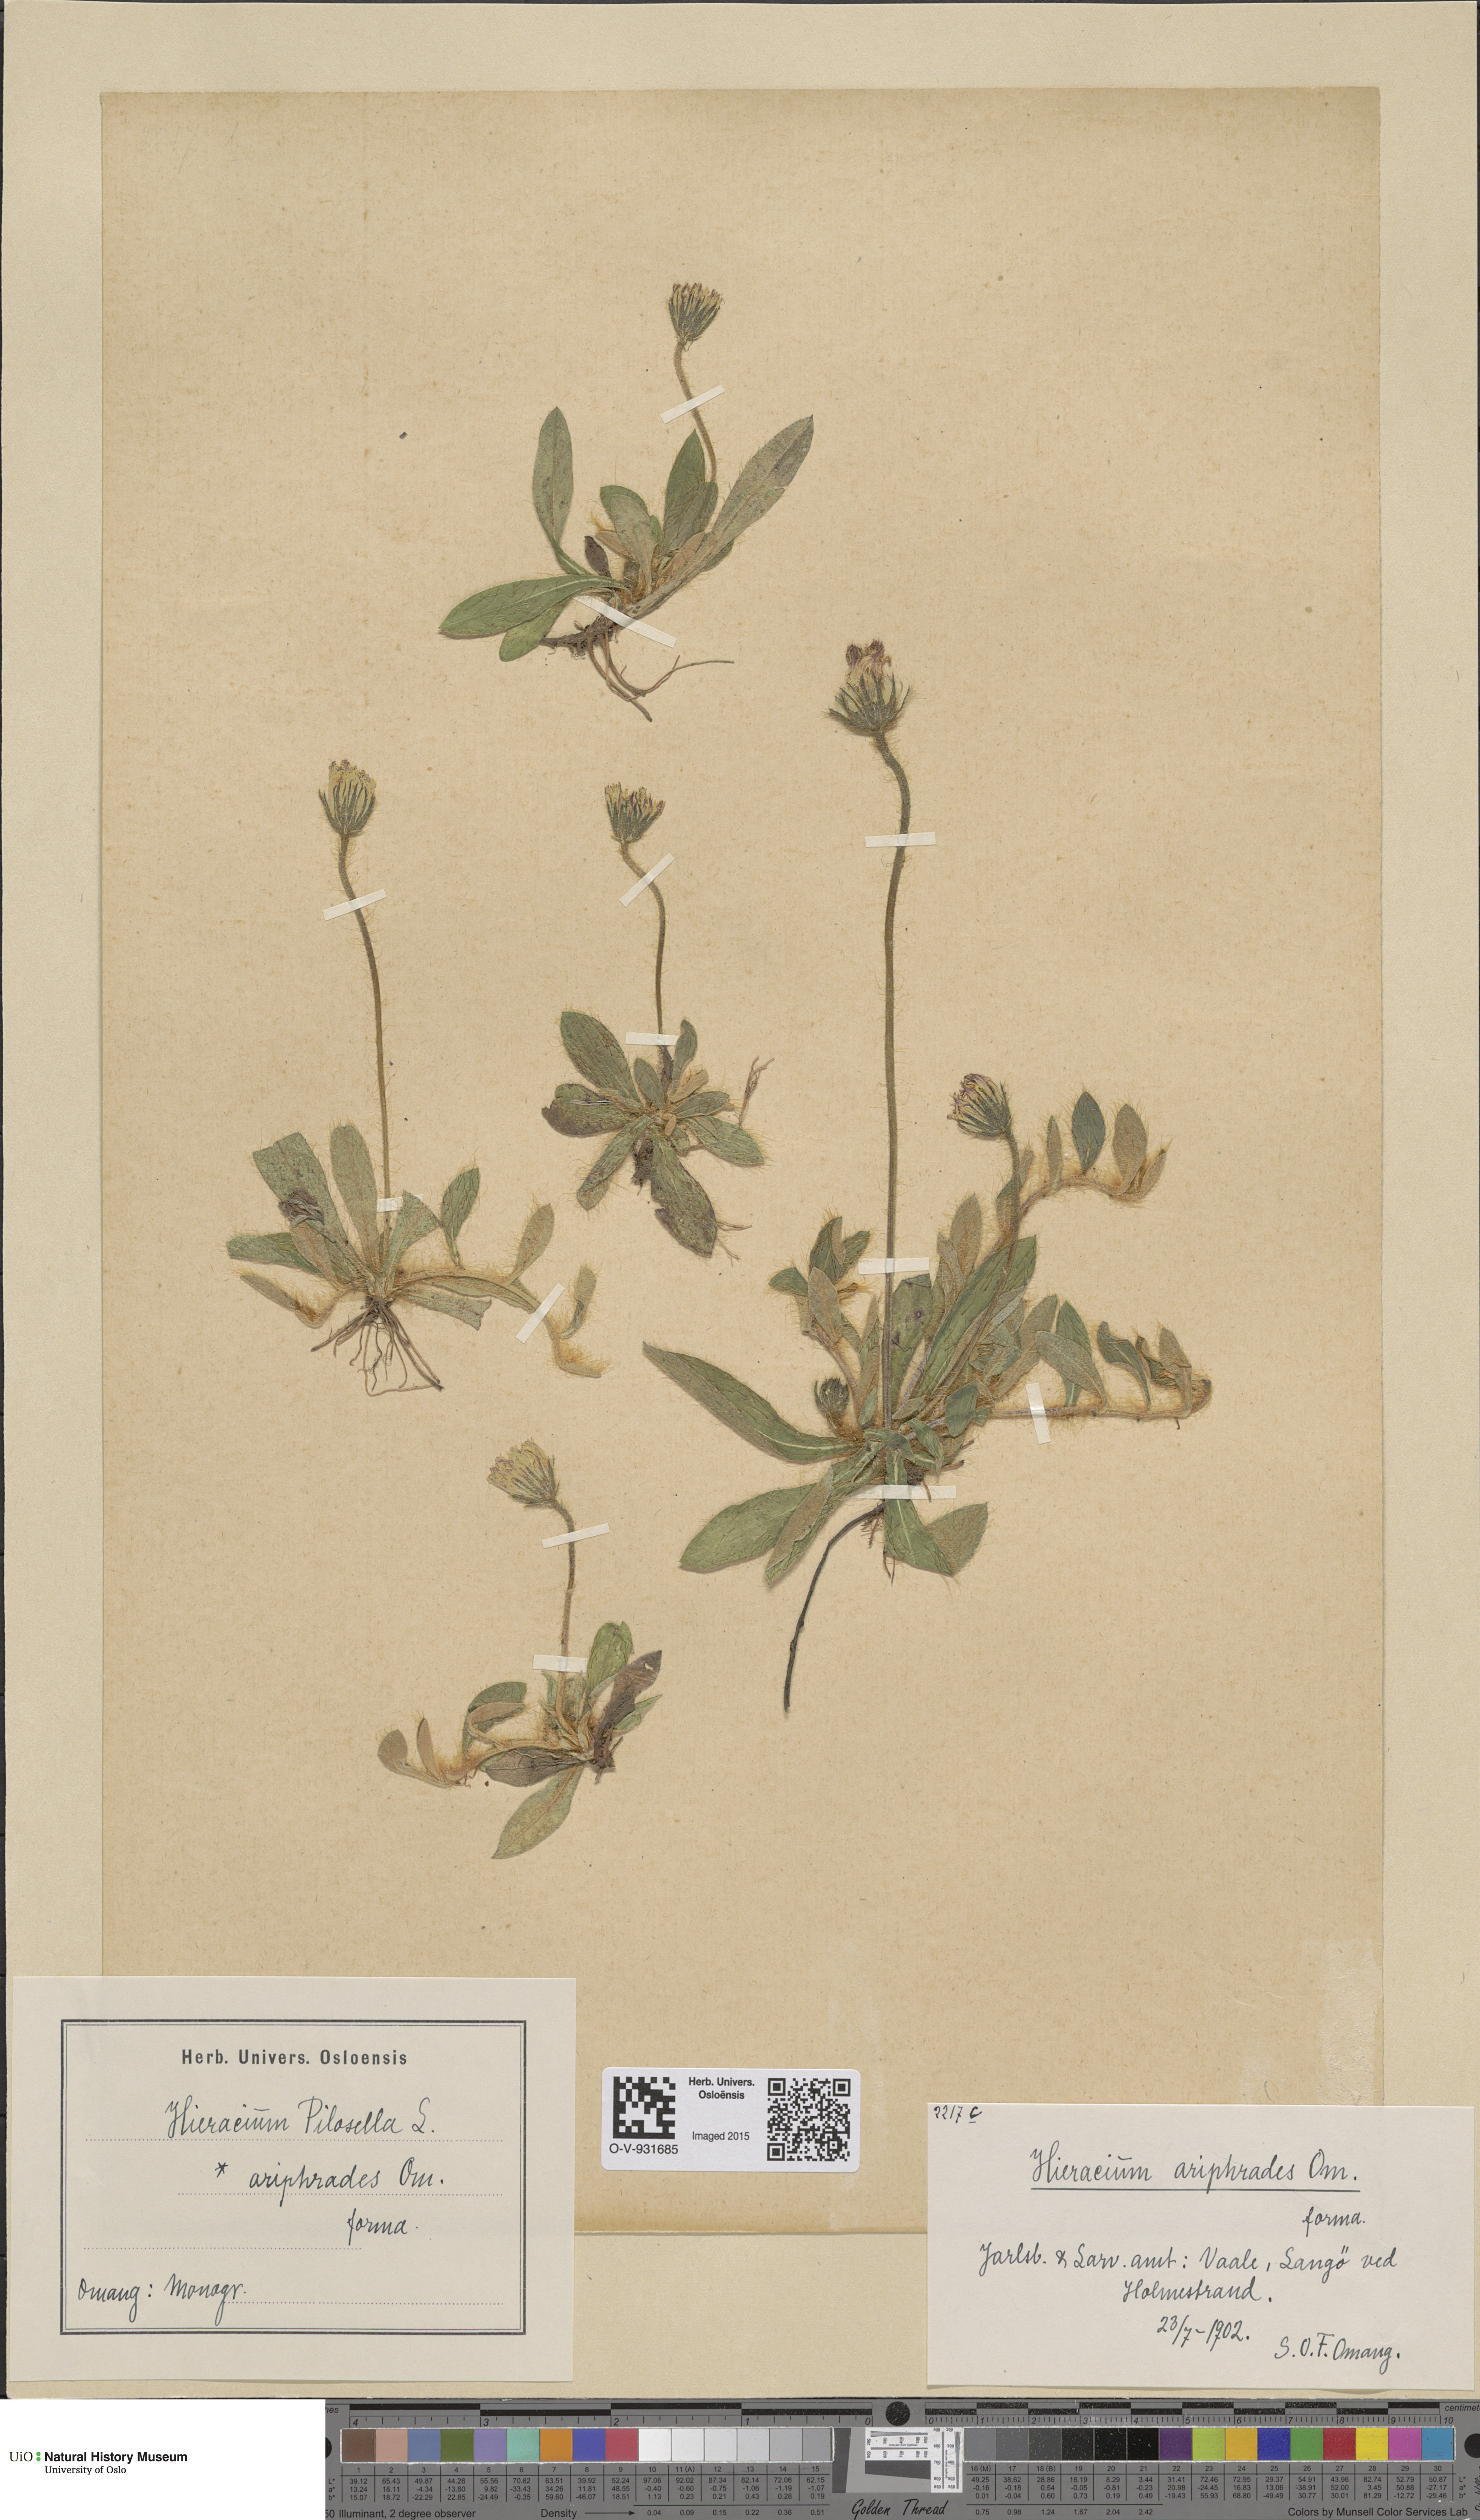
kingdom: Plantae
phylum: Tracheophyta
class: Magnoliopsida
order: Asterales
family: Asteraceae
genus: Pilosella
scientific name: Pilosella officinarum
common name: Mouse-ear hawkweed
